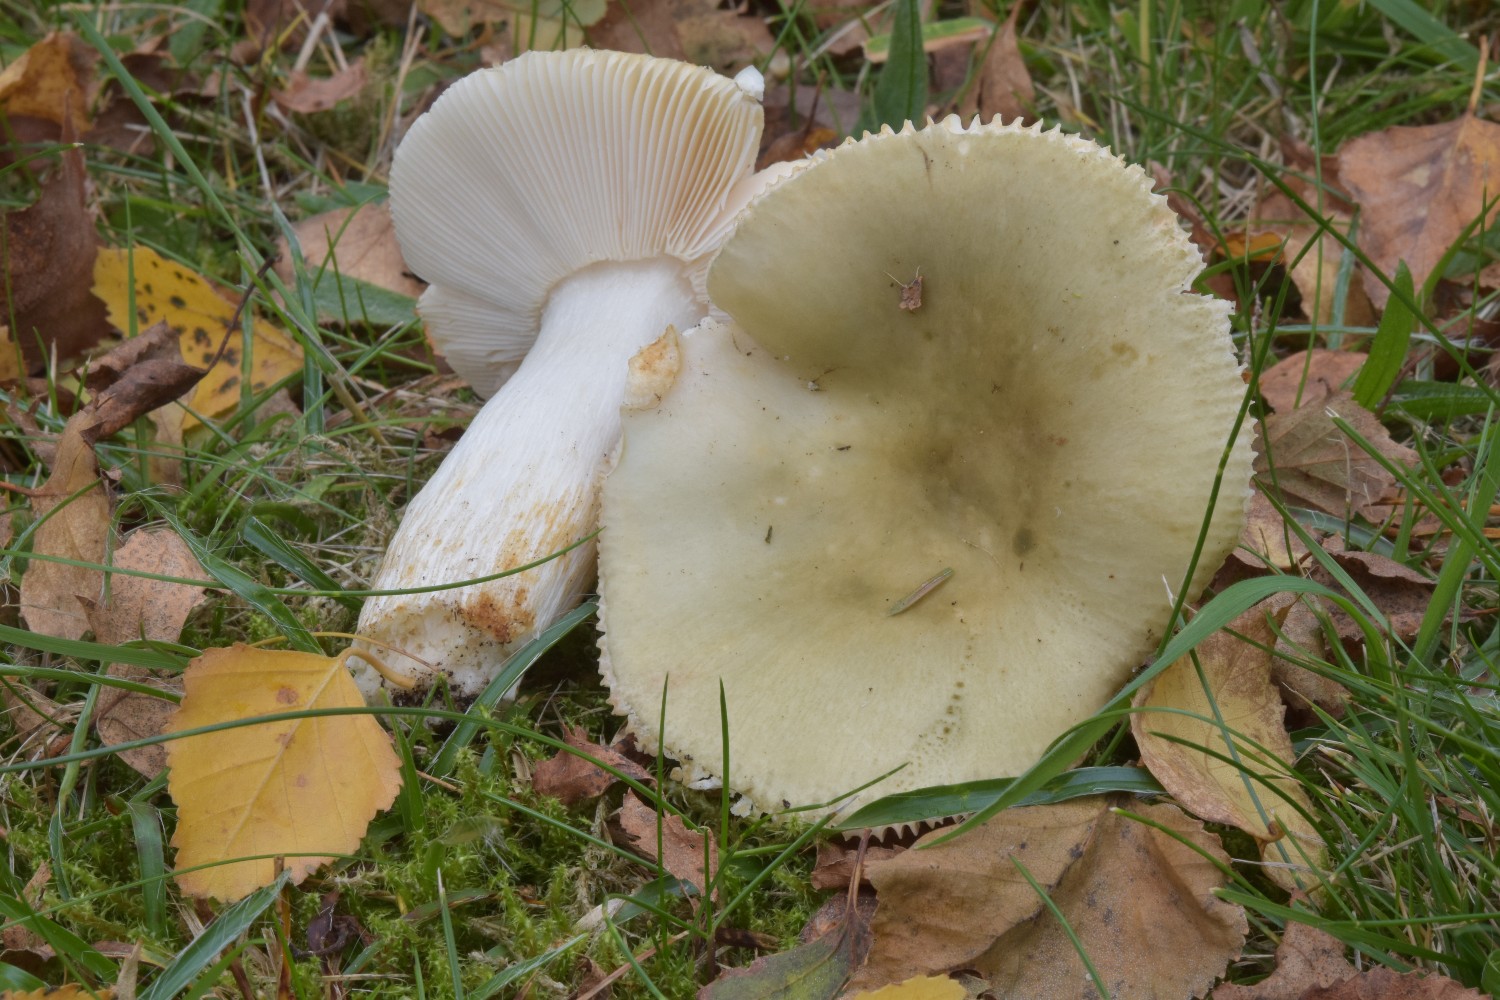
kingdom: Fungi
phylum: Basidiomycota
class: Agaricomycetes
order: Russulales
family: Russulaceae
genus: Russula
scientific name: Russula aeruginea
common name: græsgrøn skørhat
